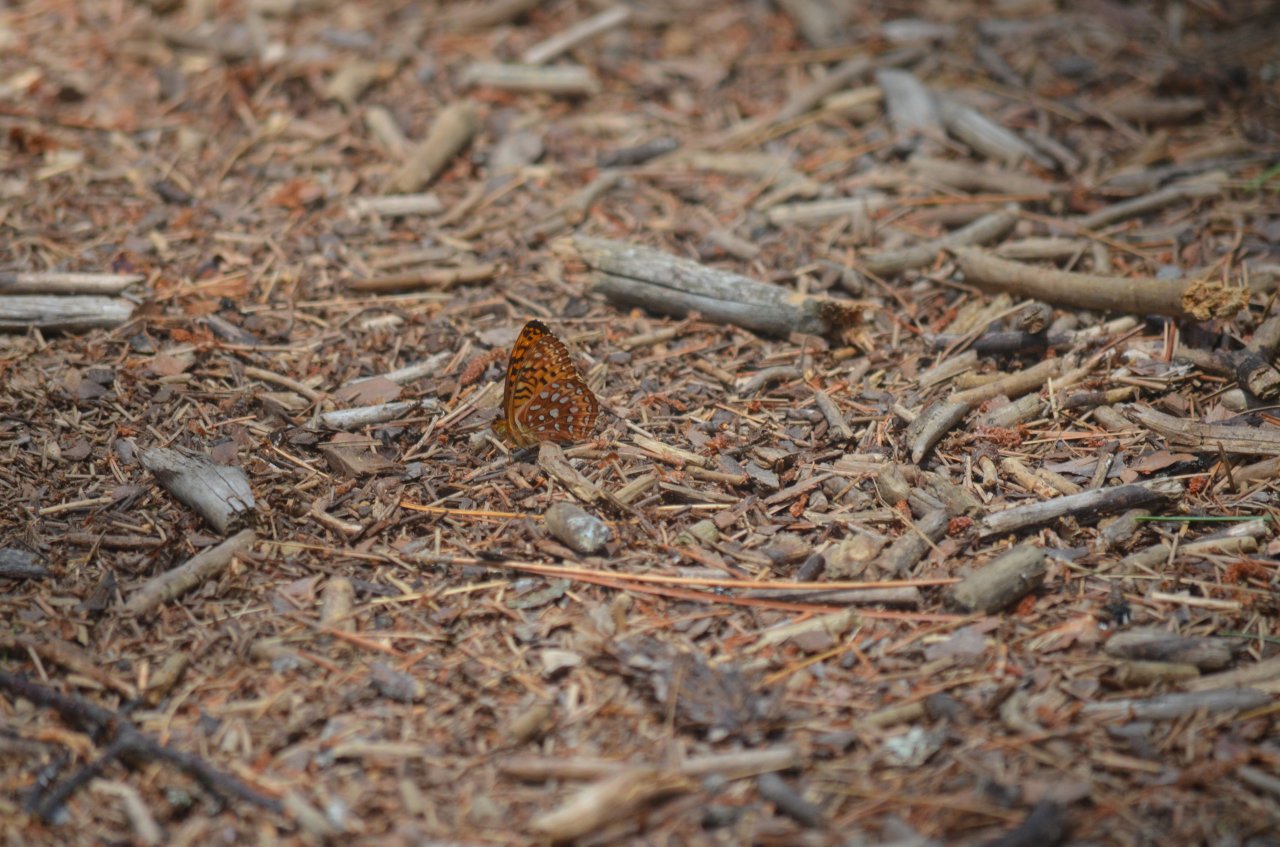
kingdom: Animalia
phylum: Arthropoda
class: Insecta
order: Lepidoptera
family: Nymphalidae
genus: Speyeria
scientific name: Speyeria aphrodite
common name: Aphrodite Fritillary
